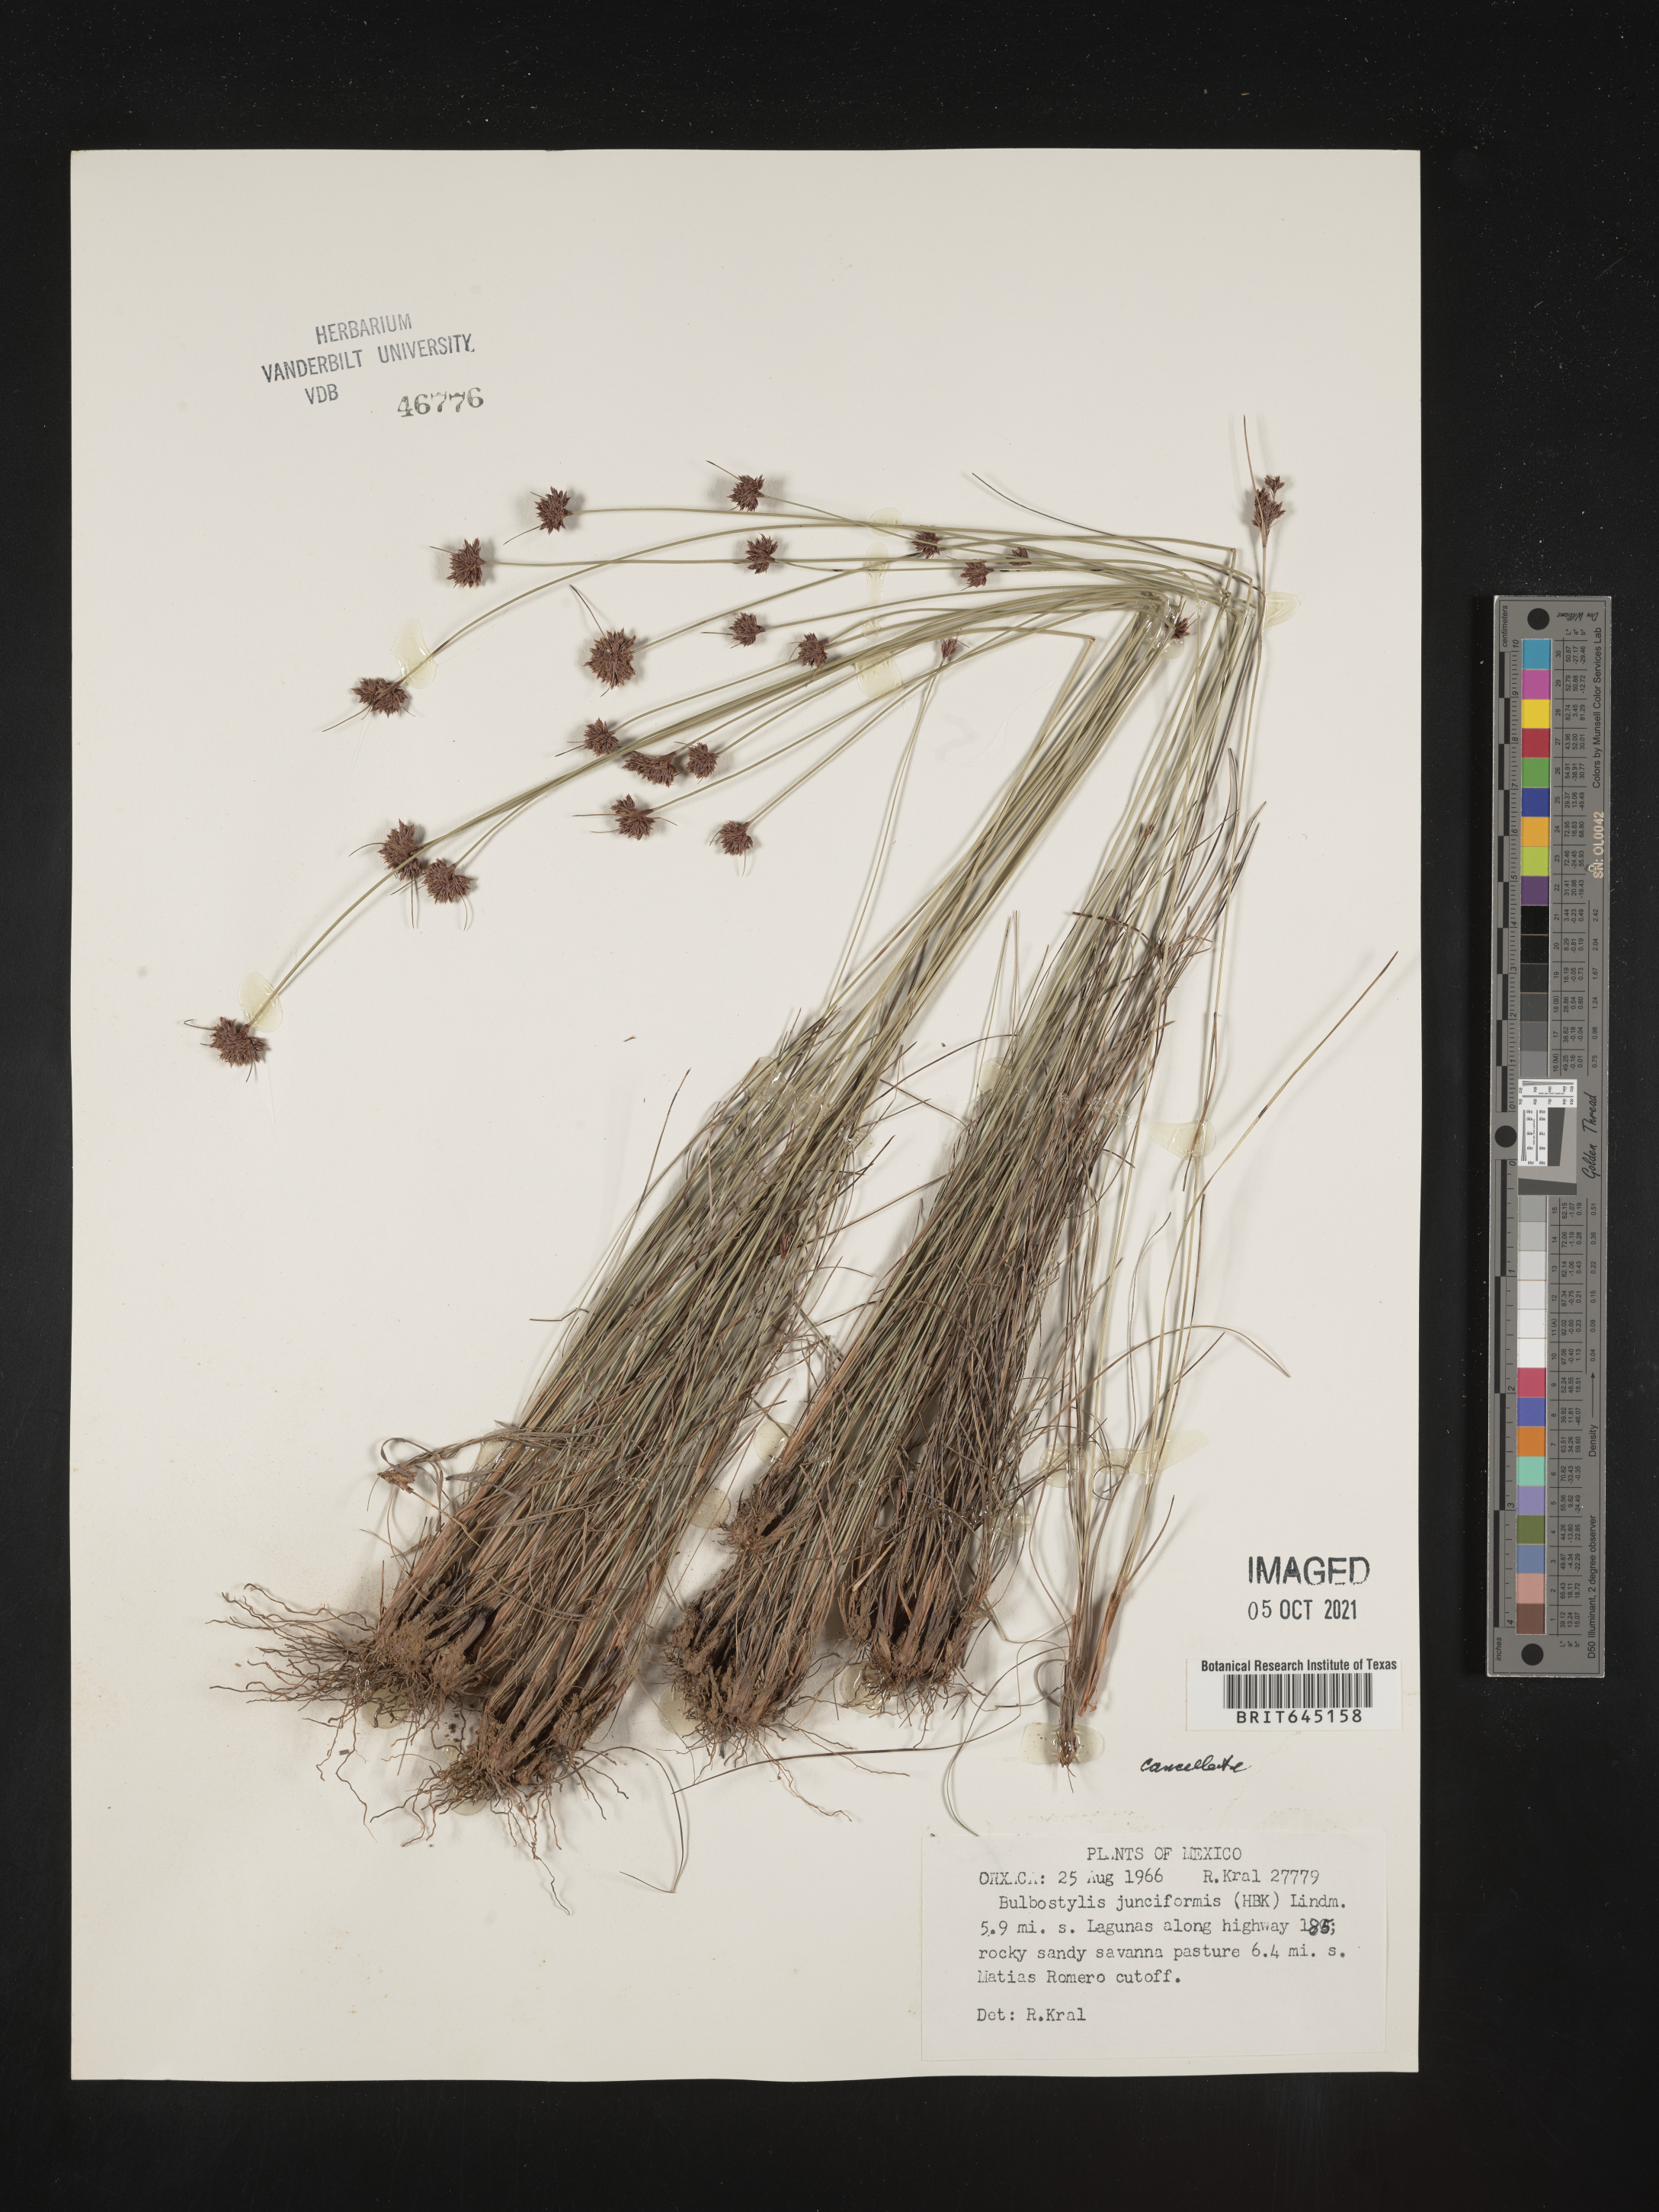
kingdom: Plantae
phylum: Tracheophyta
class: Liliopsida
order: Poales
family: Cyperaceae
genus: Bulbostylis
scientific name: Bulbostylis junciformis
